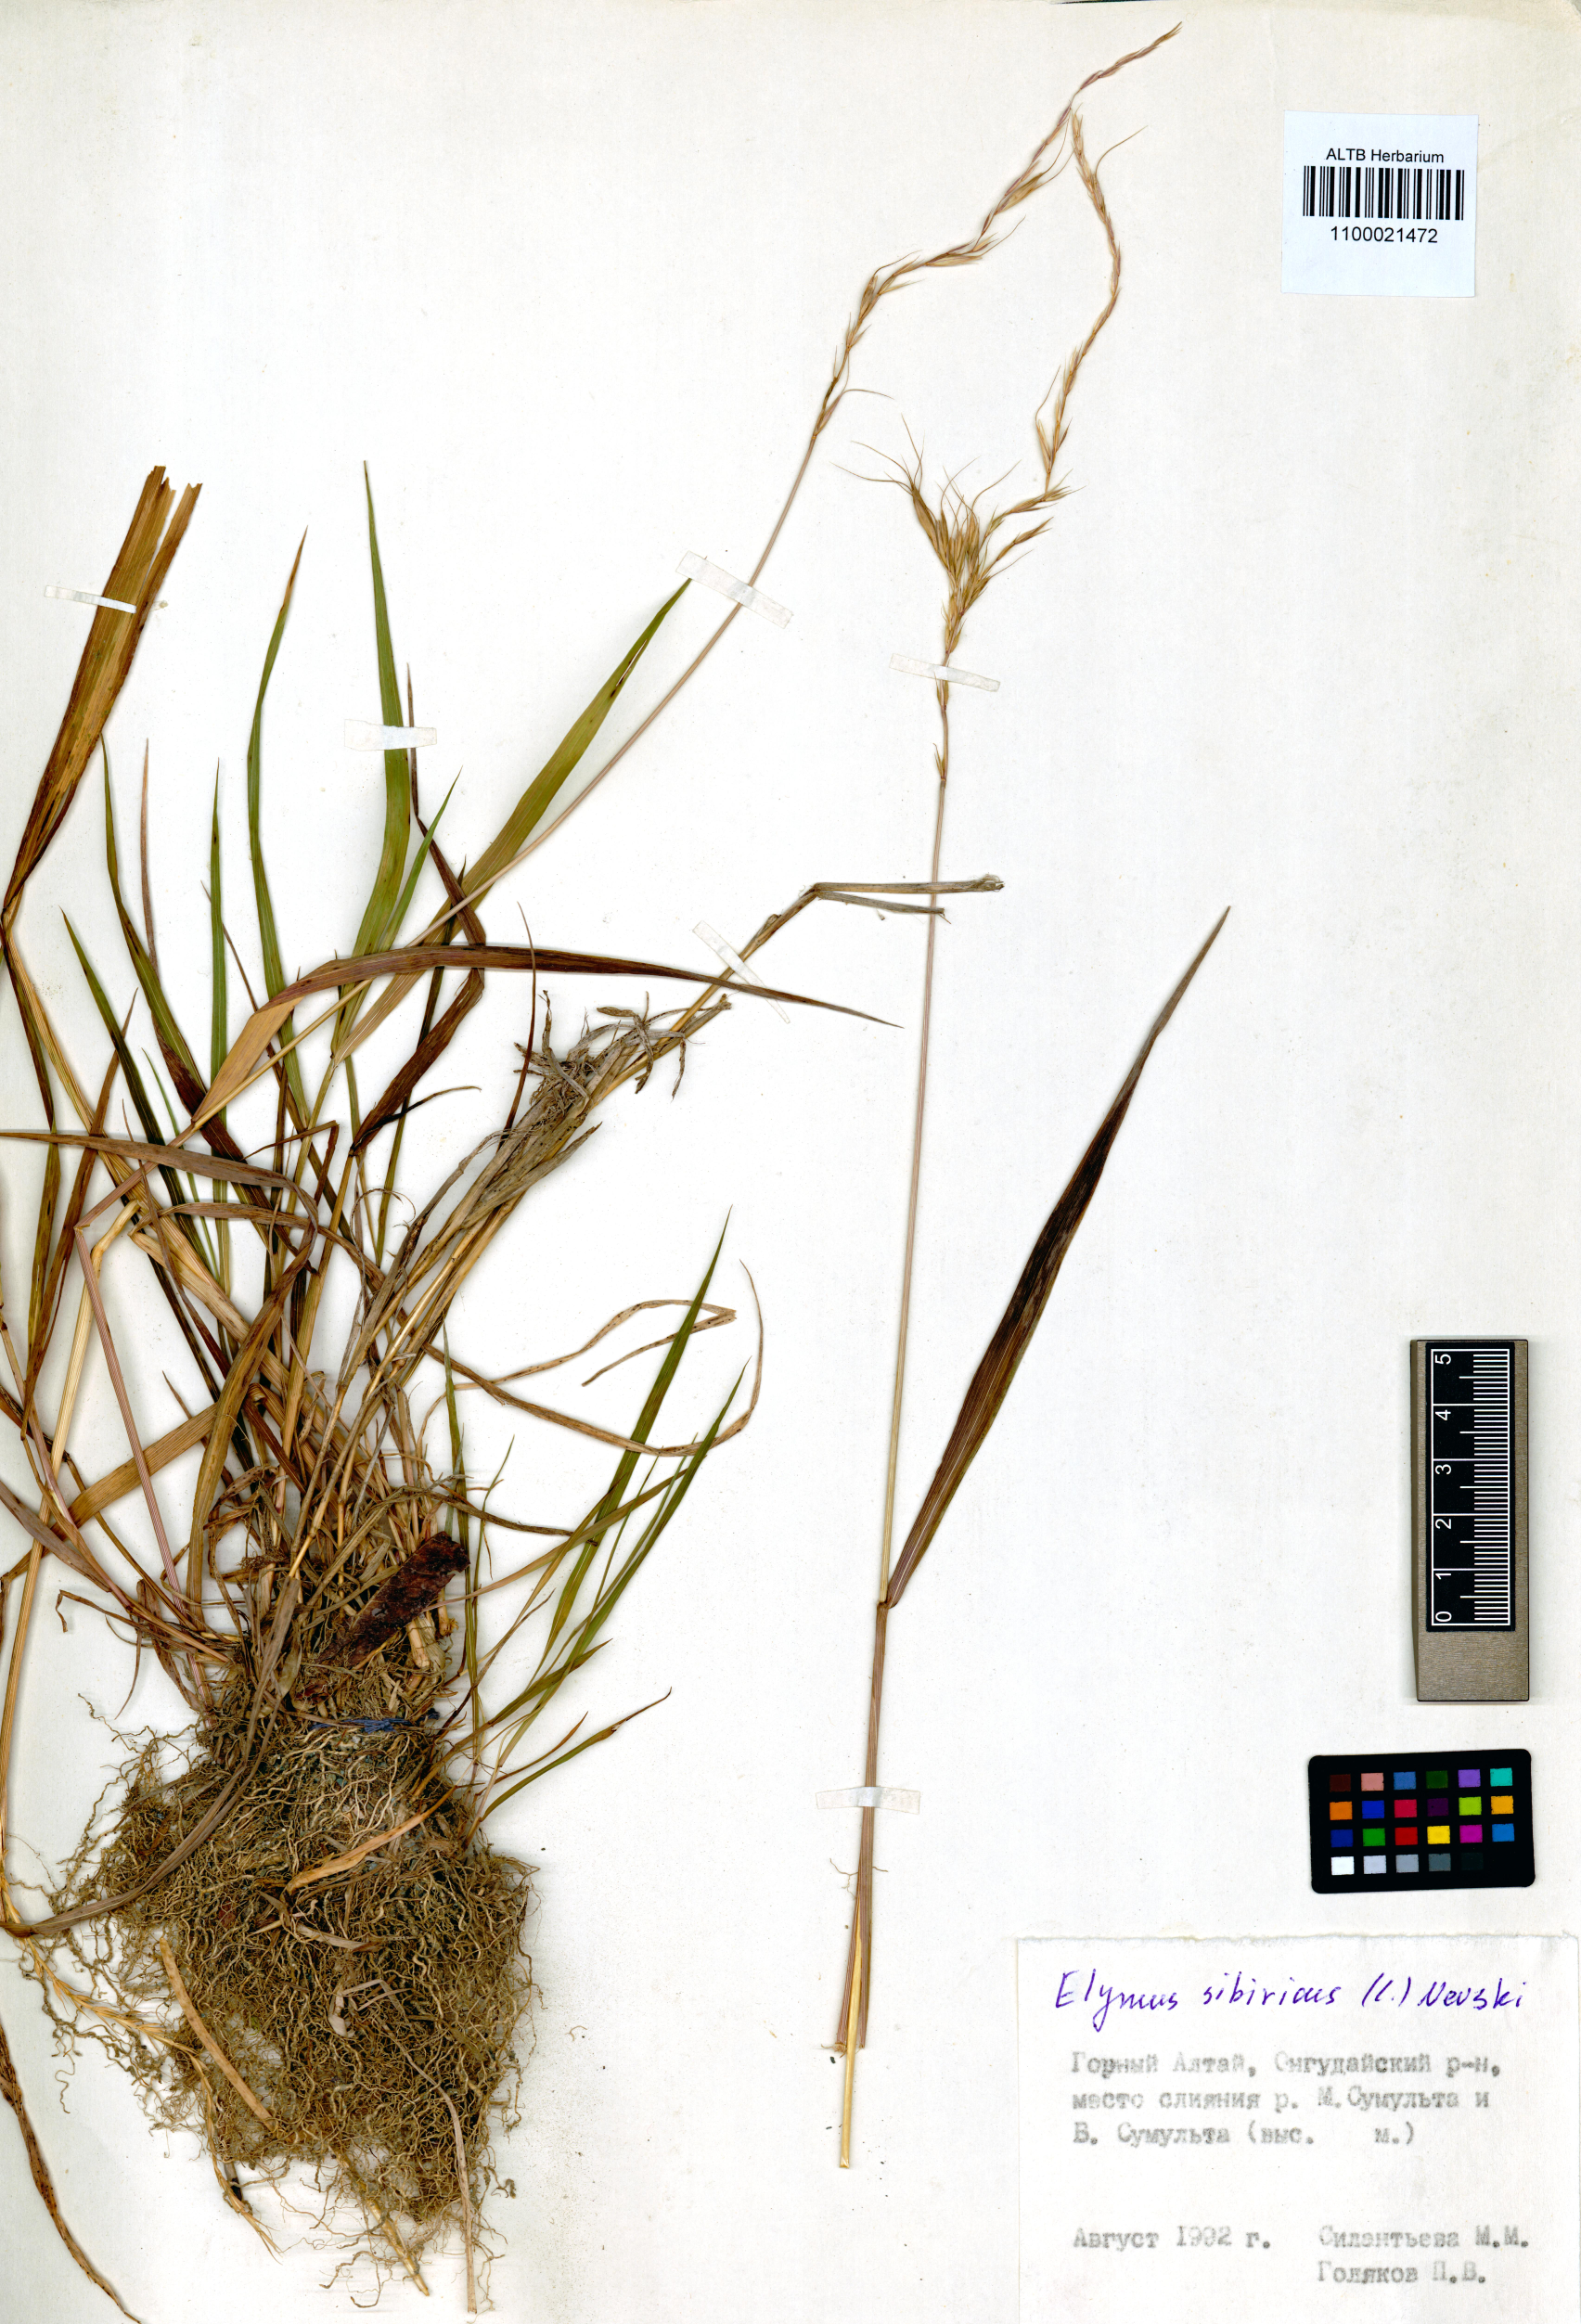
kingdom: Plantae
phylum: Tracheophyta
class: Liliopsida
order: Poales
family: Poaceae
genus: Elymus
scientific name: Elymus sibiricus
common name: Siberian wildrye
